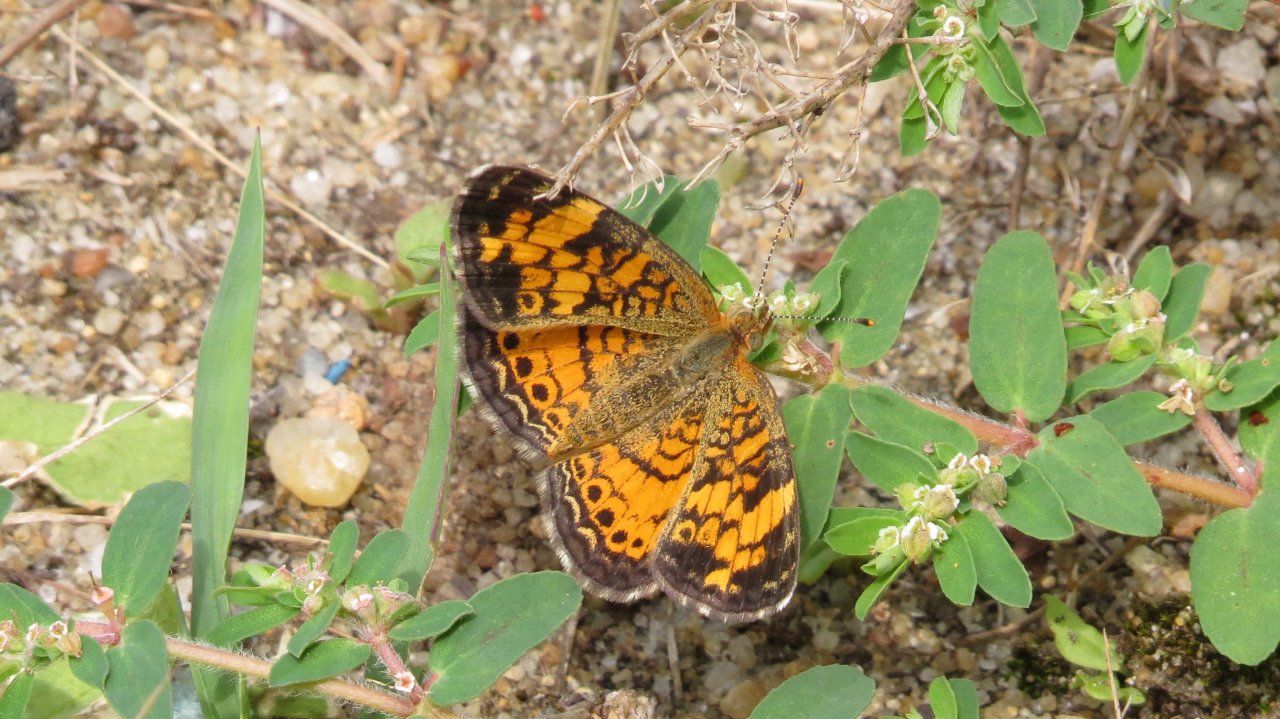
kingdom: Animalia
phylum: Arthropoda
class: Insecta
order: Lepidoptera
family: Nymphalidae
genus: Phyciodes
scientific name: Phyciodes tharos
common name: Pearl Crescent
